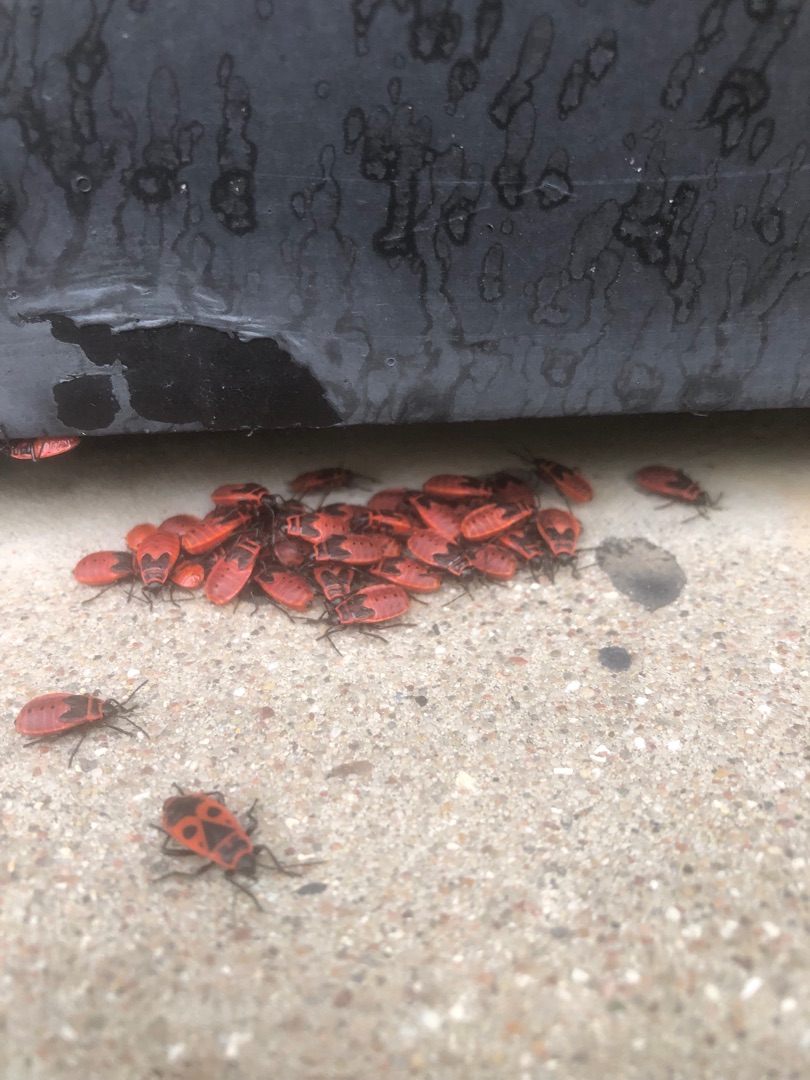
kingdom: Animalia
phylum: Arthropoda
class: Insecta
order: Hemiptera
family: Pyrrhocoridae
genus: Pyrrhocoris
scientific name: Pyrrhocoris apterus
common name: Ildtæge
